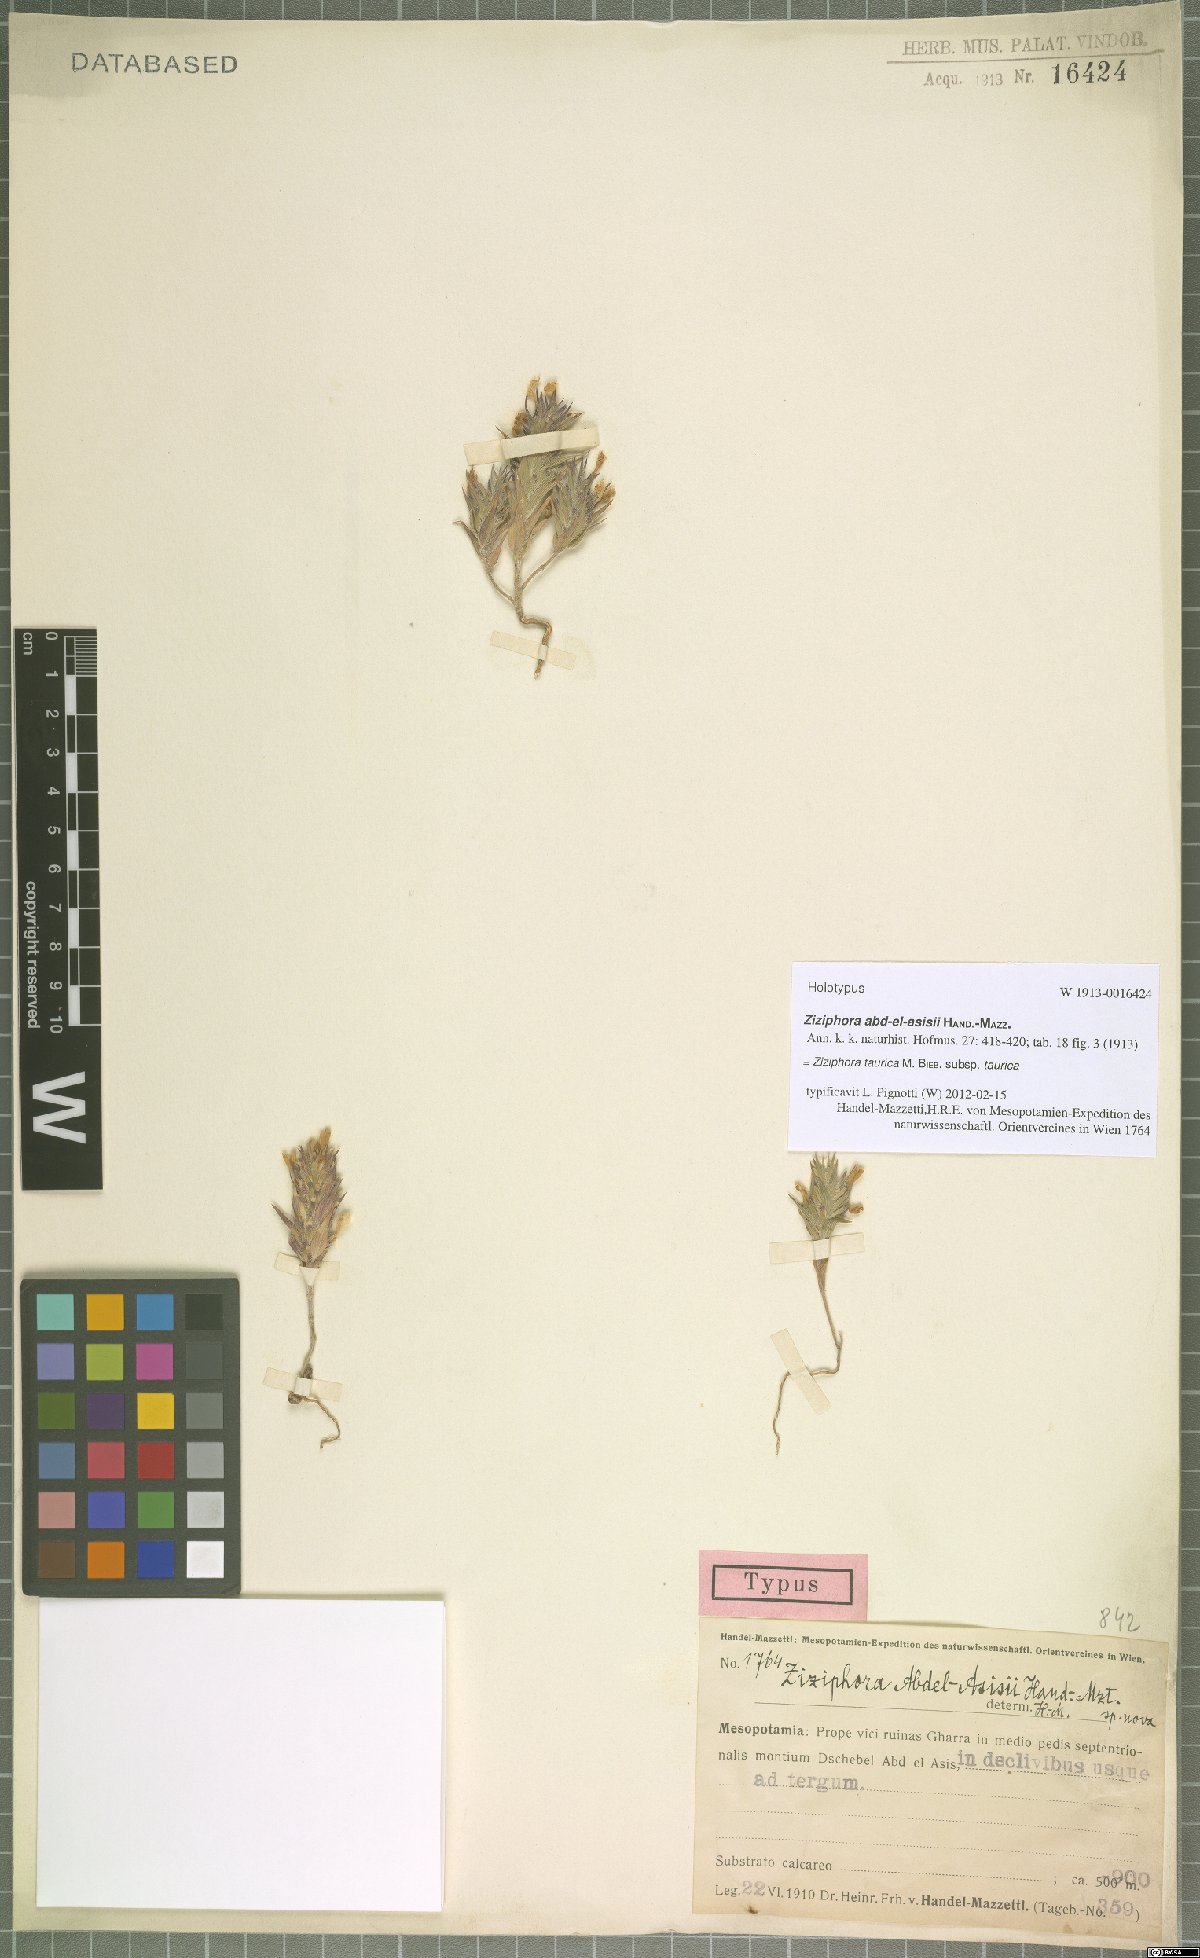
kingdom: Plantae
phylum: Tracheophyta
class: Magnoliopsida
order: Lamiales
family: Lamiaceae
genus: Ziziphora
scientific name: Ziziphora taurica
